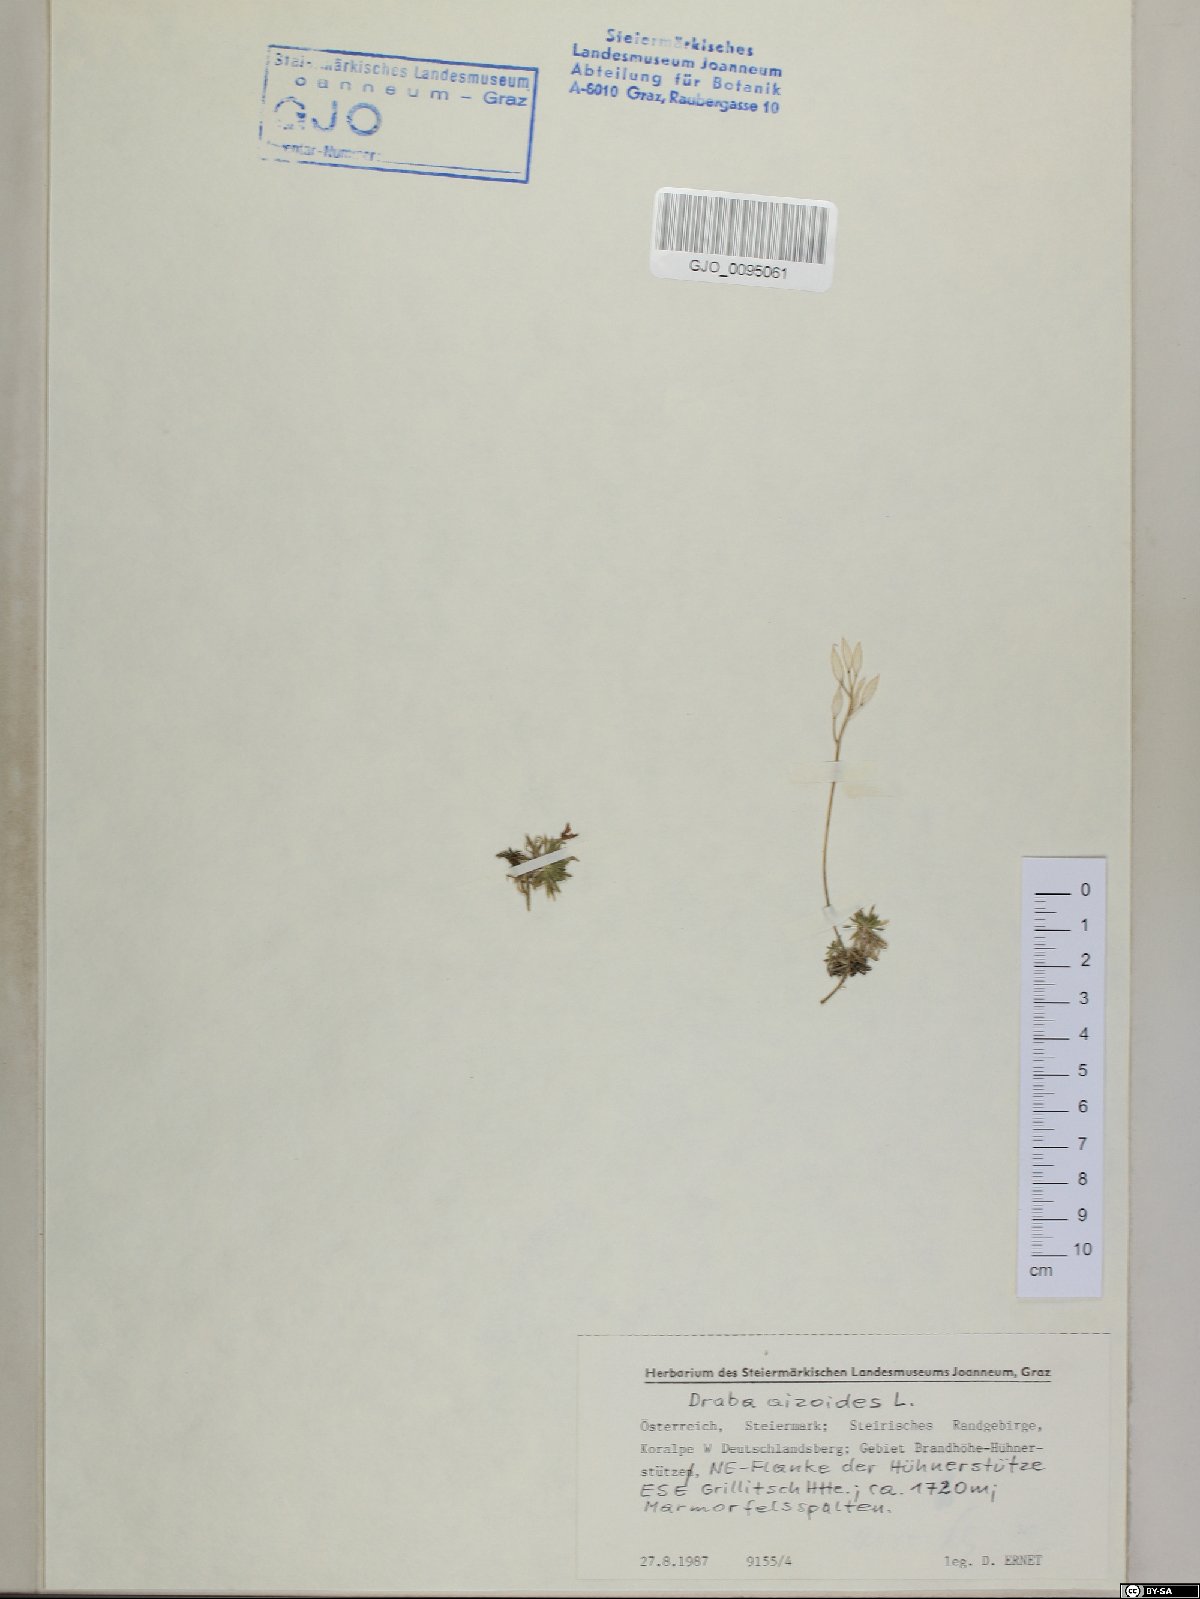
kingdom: Plantae
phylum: Tracheophyta
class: Magnoliopsida
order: Brassicales
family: Brassicaceae
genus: Draba
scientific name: Draba aizoides
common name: Yellow whitlowgrass
